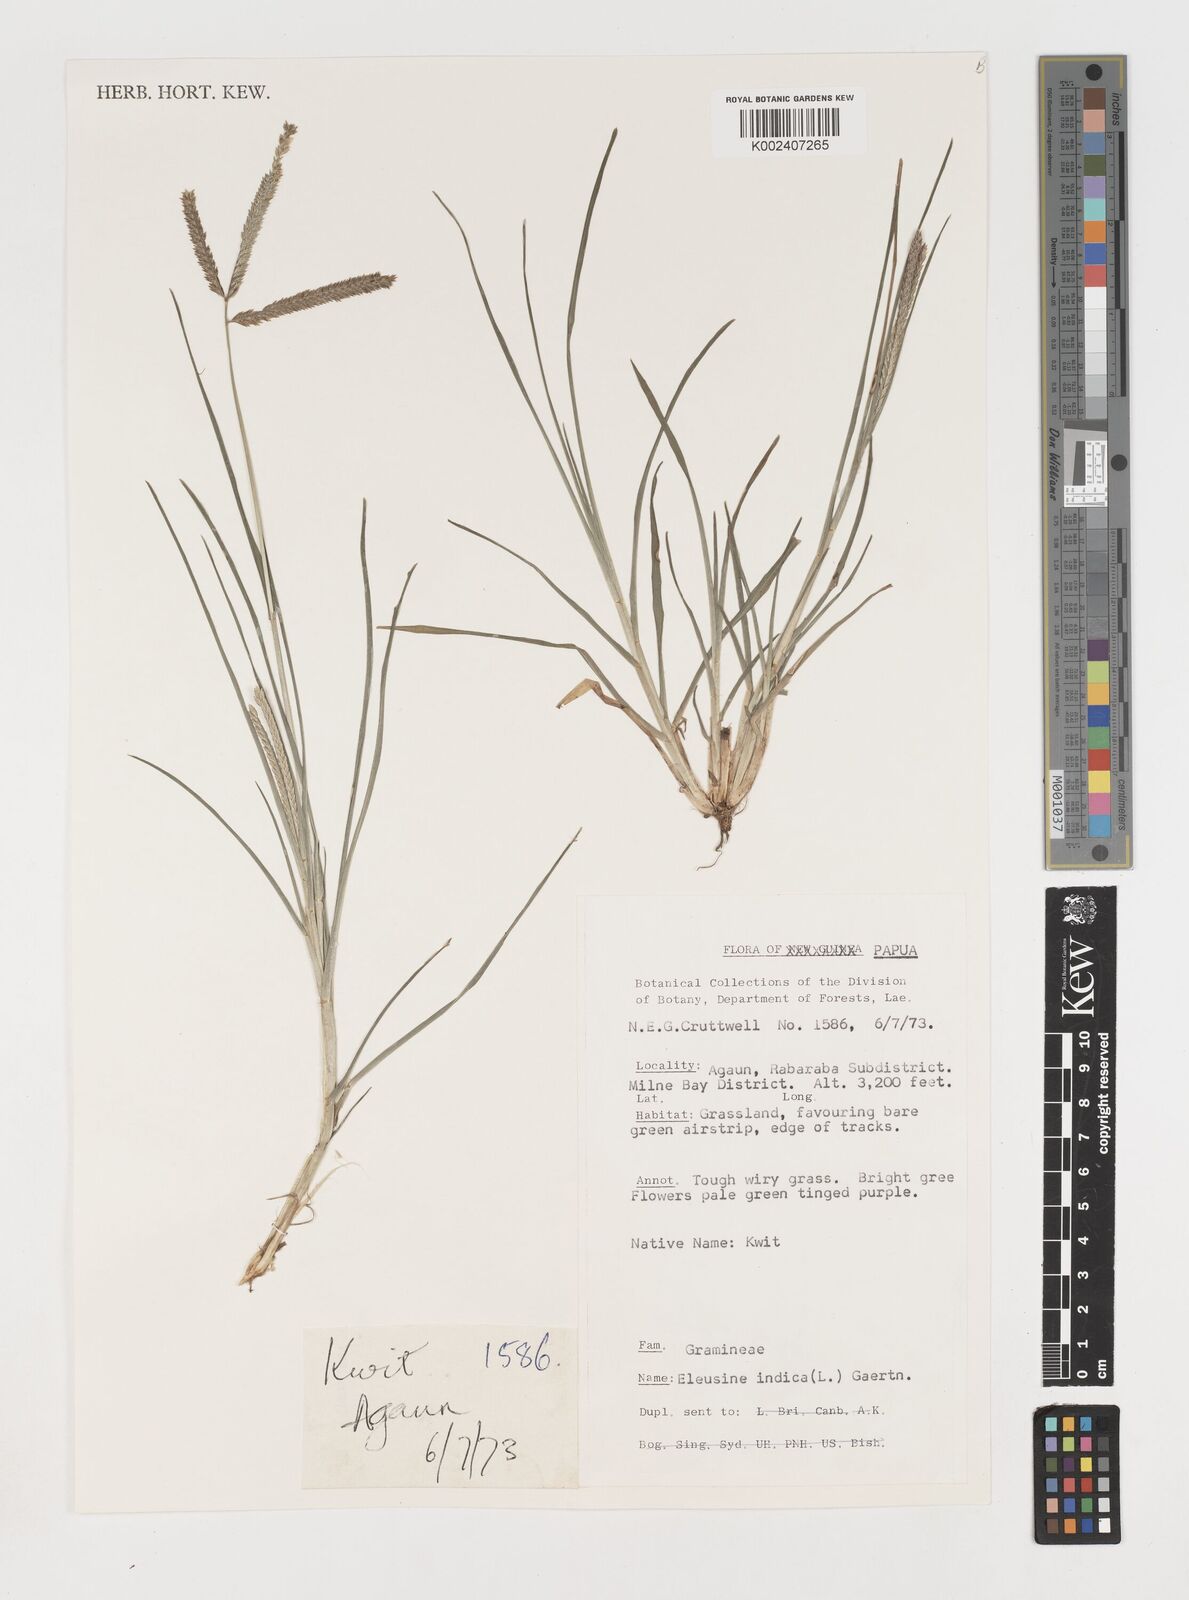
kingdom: Plantae
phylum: Tracheophyta
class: Liliopsida
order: Poales
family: Poaceae
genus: Eleusine
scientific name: Eleusine indica
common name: Yard-grass
